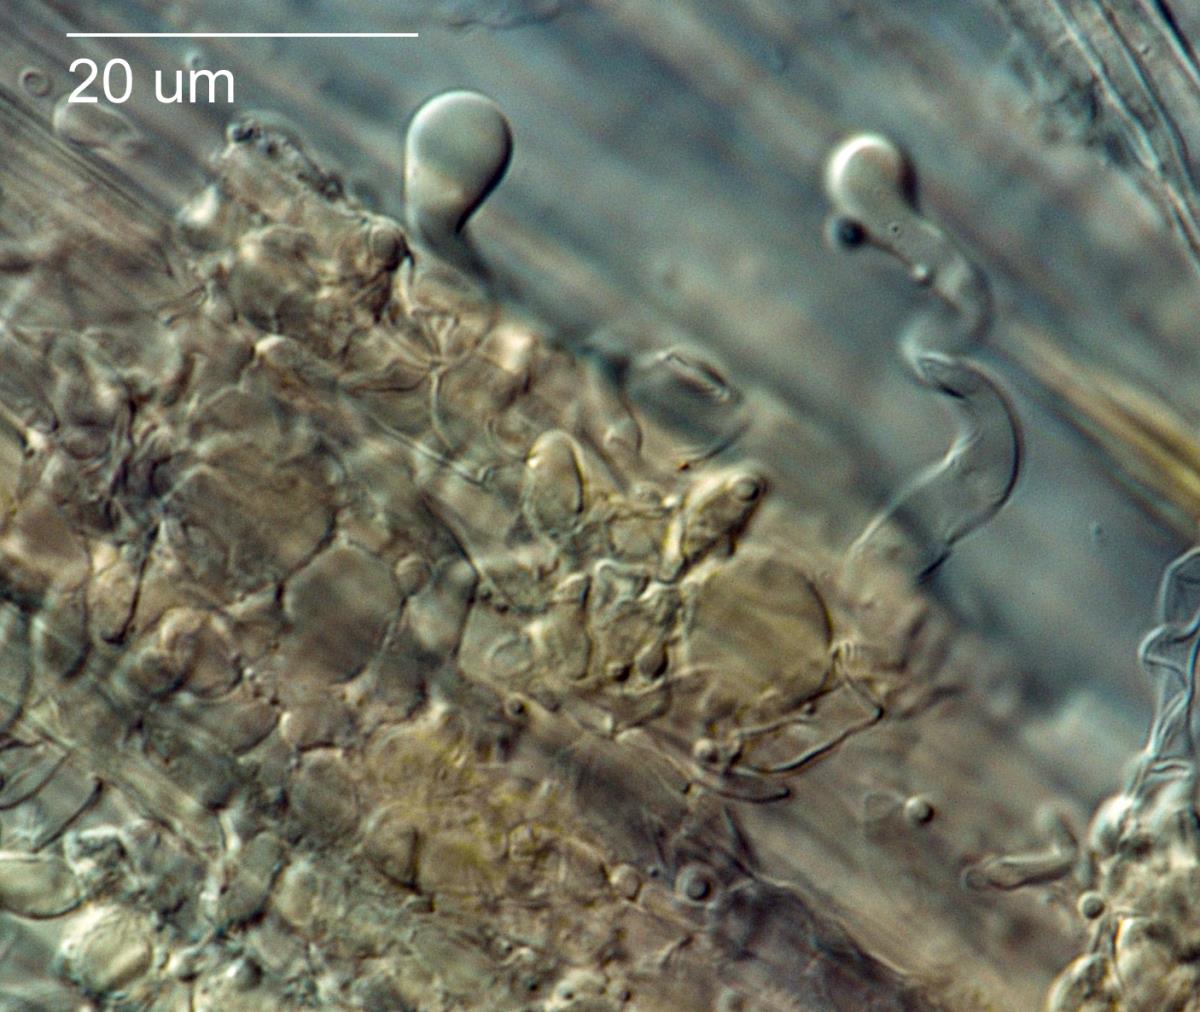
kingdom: Fungi
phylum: Basidiomycota
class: Agaricomycetes
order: Agaricales
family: Mycenaceae
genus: Hemimycena
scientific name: Hemimycena cephalotricha
